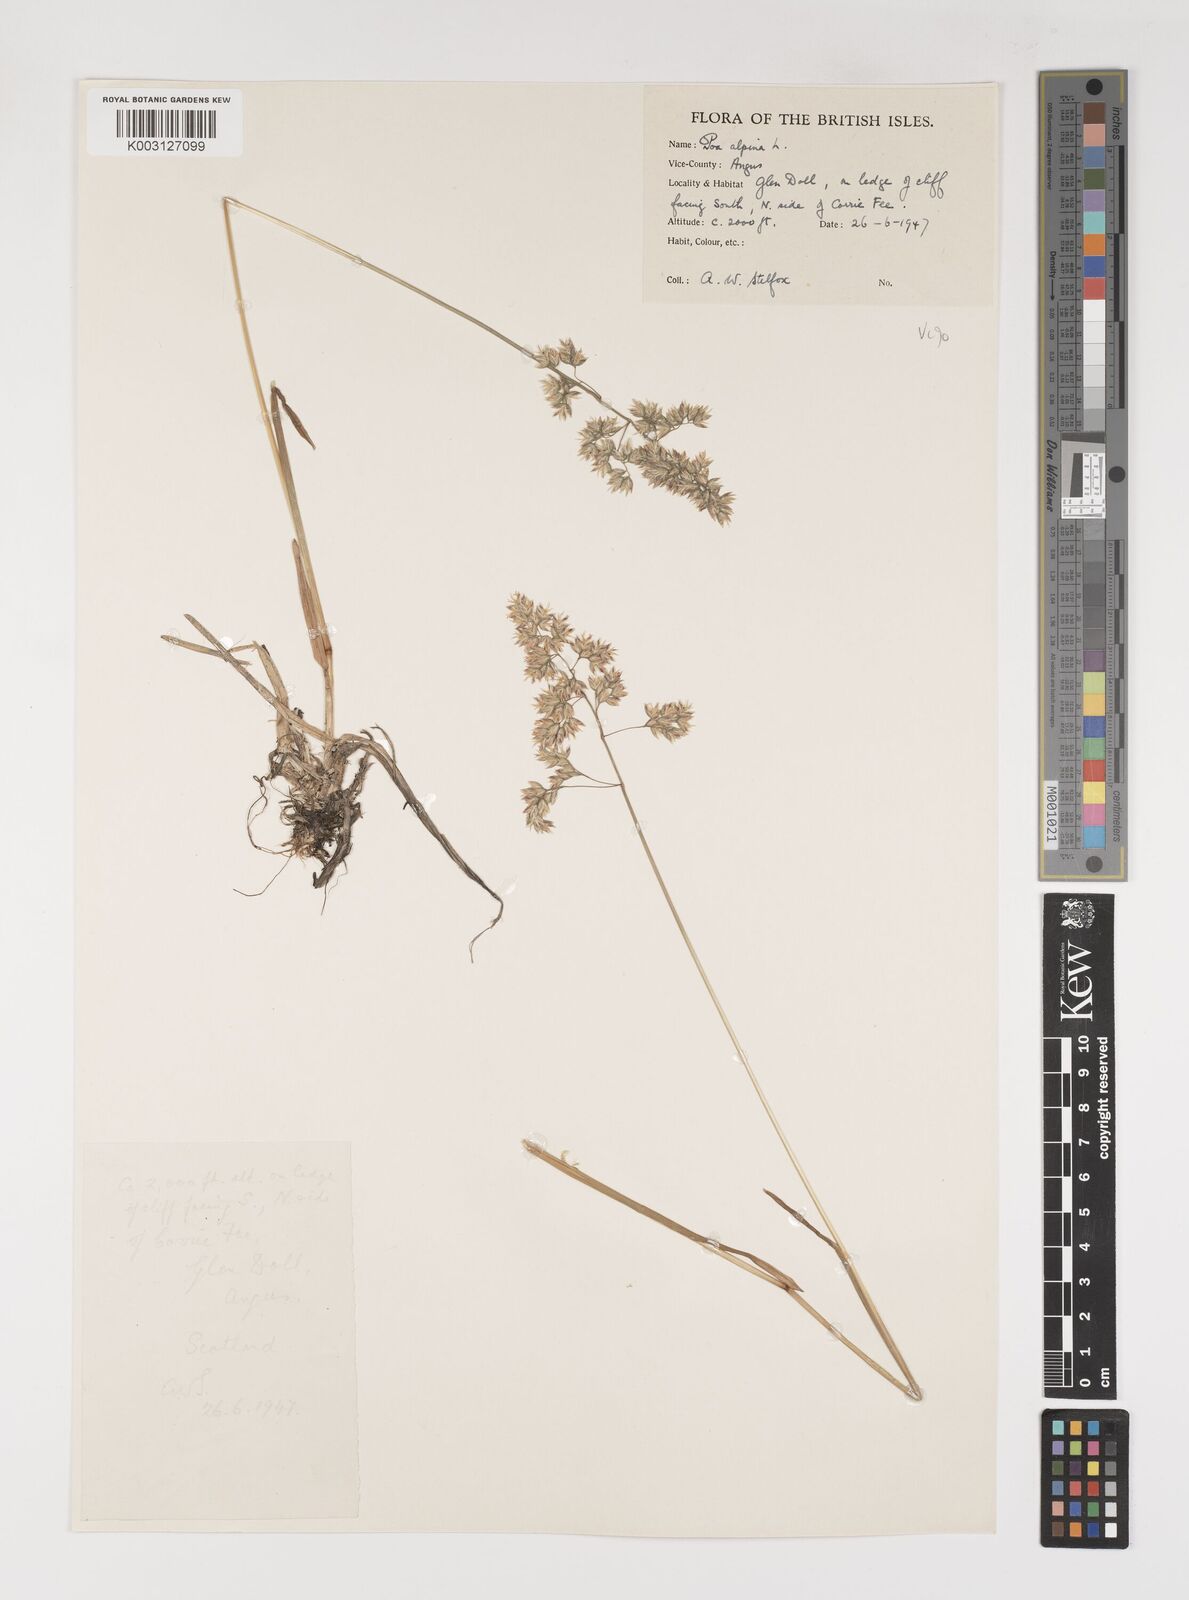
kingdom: Plantae
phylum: Tracheophyta
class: Liliopsida
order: Poales
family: Poaceae
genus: Poa
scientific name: Poa alpina
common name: Alpine bluegrass
